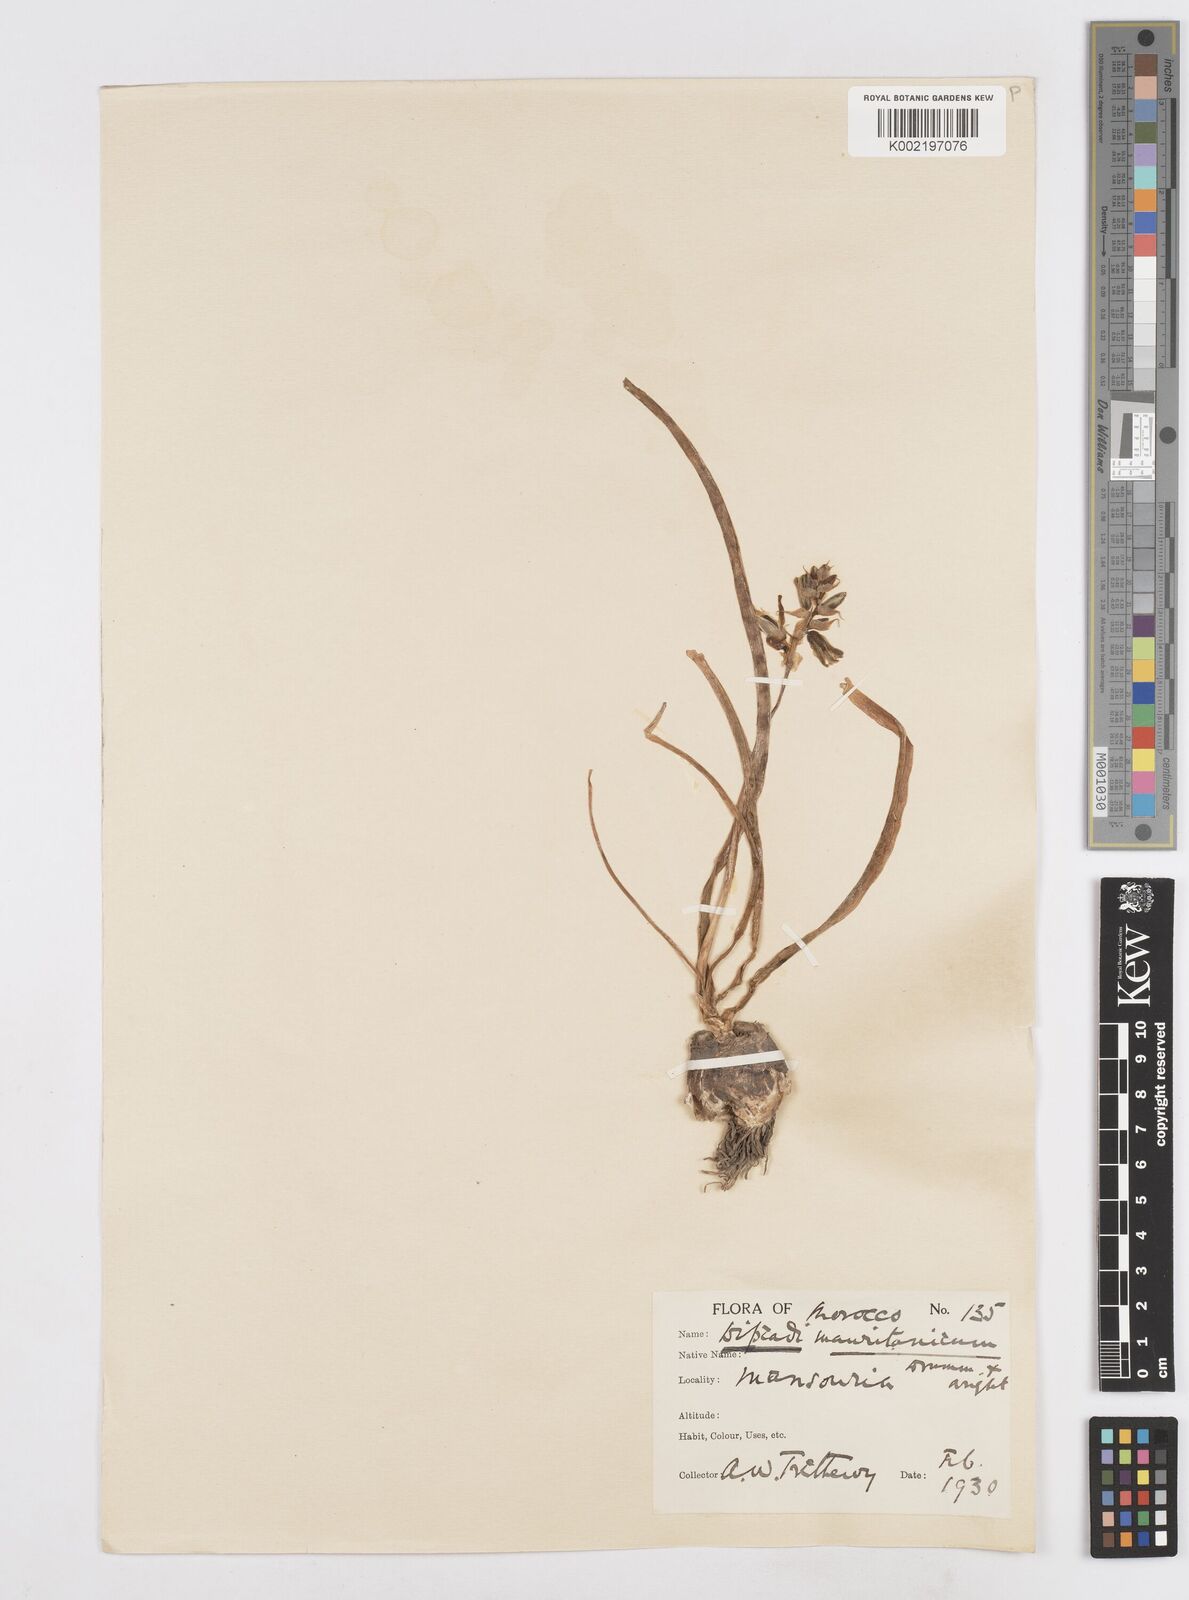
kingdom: Plantae
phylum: Tracheophyta
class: Liliopsida
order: Asparagales
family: Asparagaceae
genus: Dipcadi
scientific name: Dipcadi serotinum
